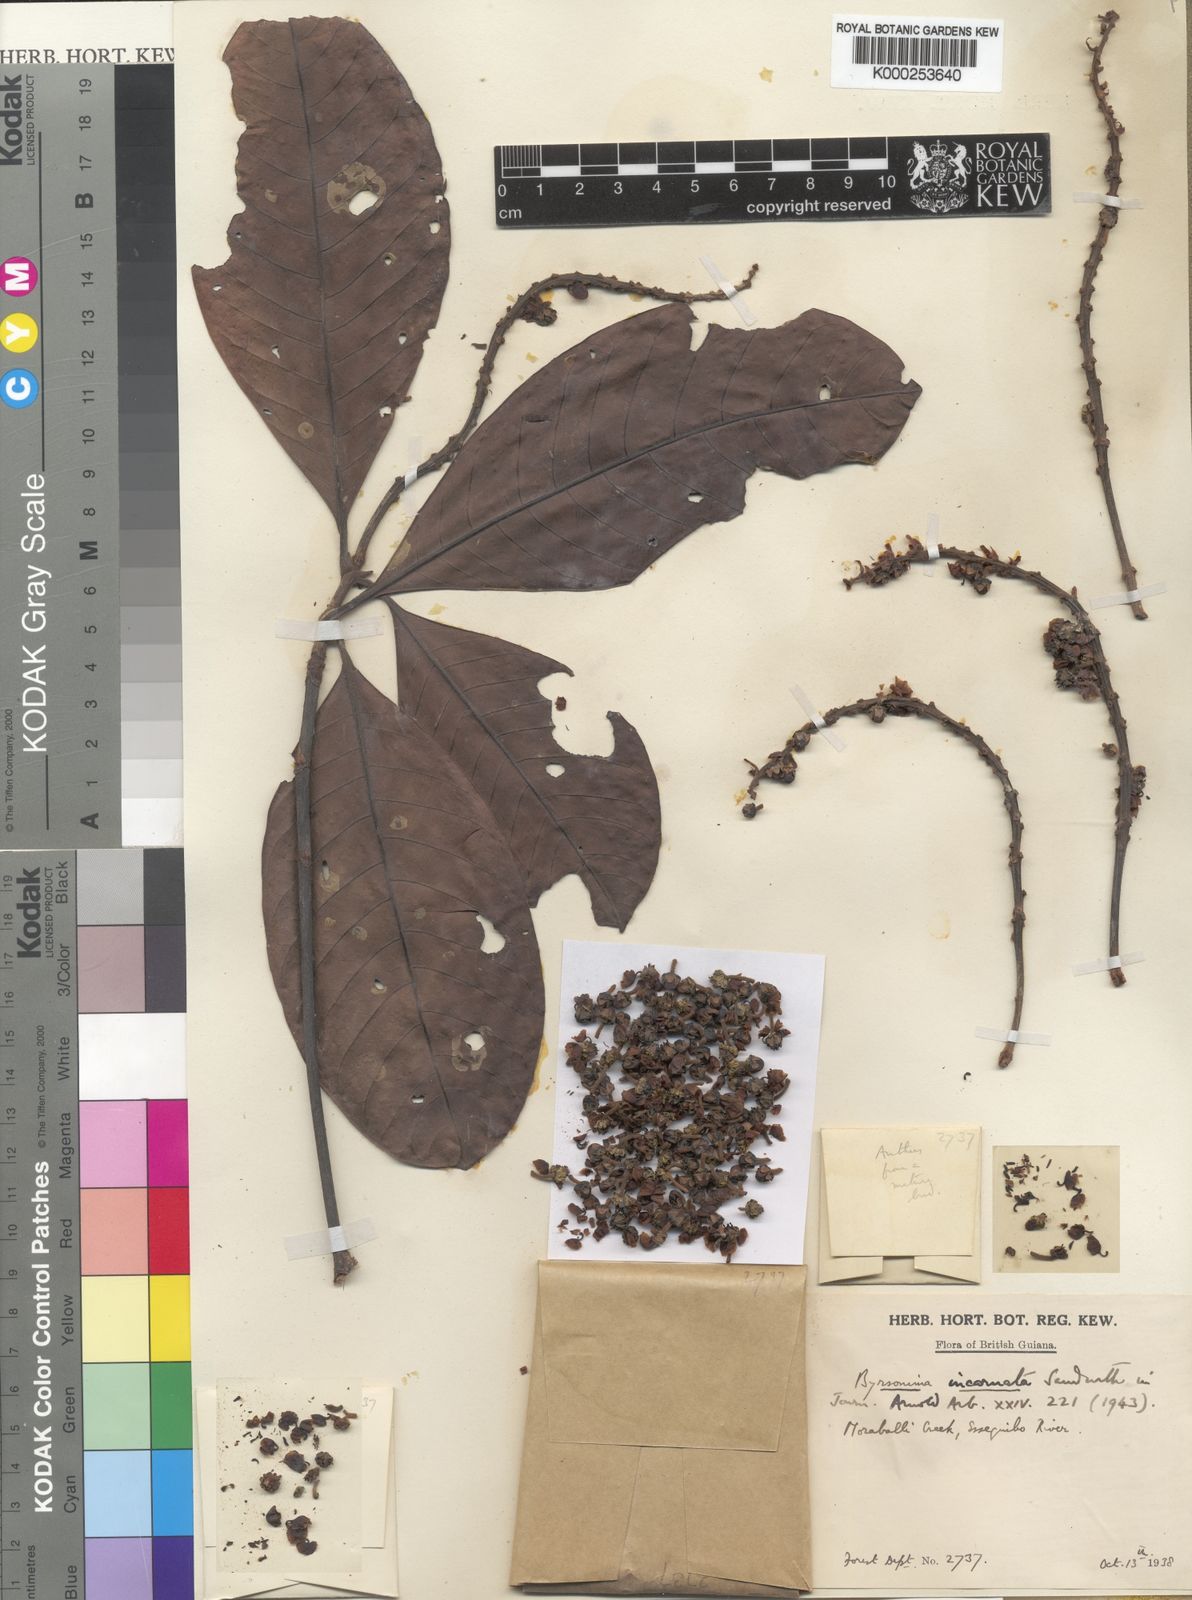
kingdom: Plantae
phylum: Tracheophyta
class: Magnoliopsida
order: Malpighiales
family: Malpighiaceae
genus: Byrsonima
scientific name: Byrsonima incarnata
